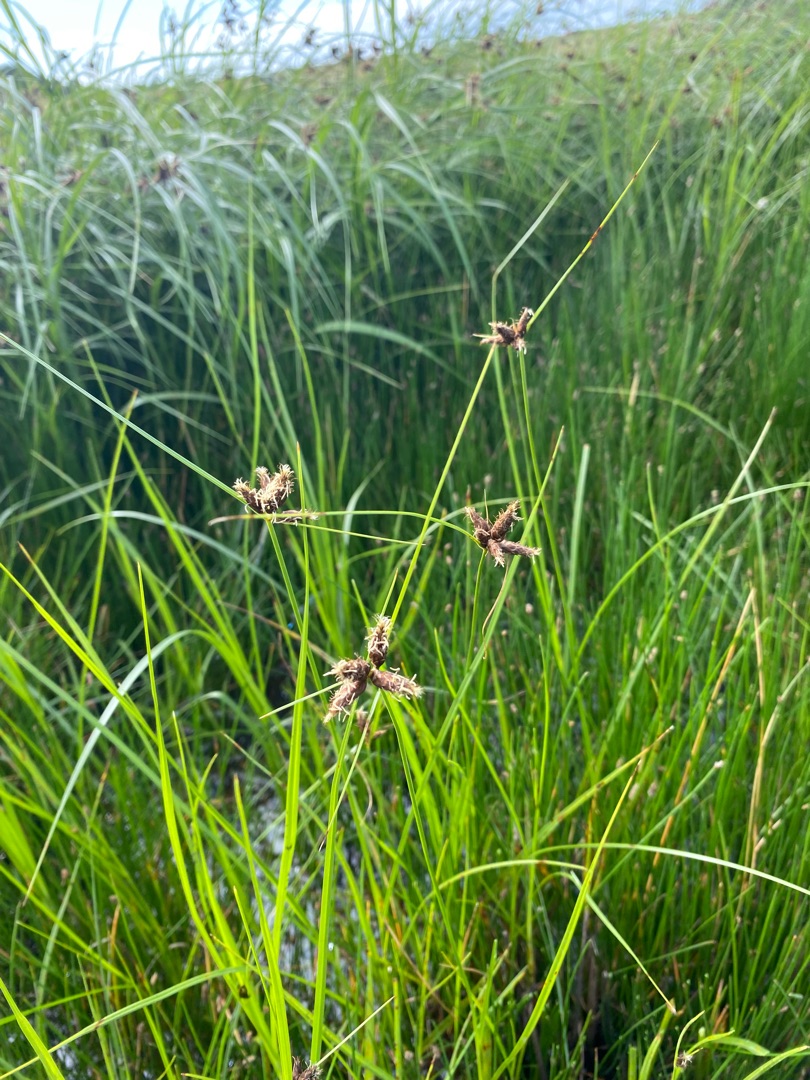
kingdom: Plantae
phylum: Tracheophyta
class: Liliopsida
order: Poales
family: Cyperaceae
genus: Bolboschoenus
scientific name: Bolboschoenus maritimus
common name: Strand-kogleaks
